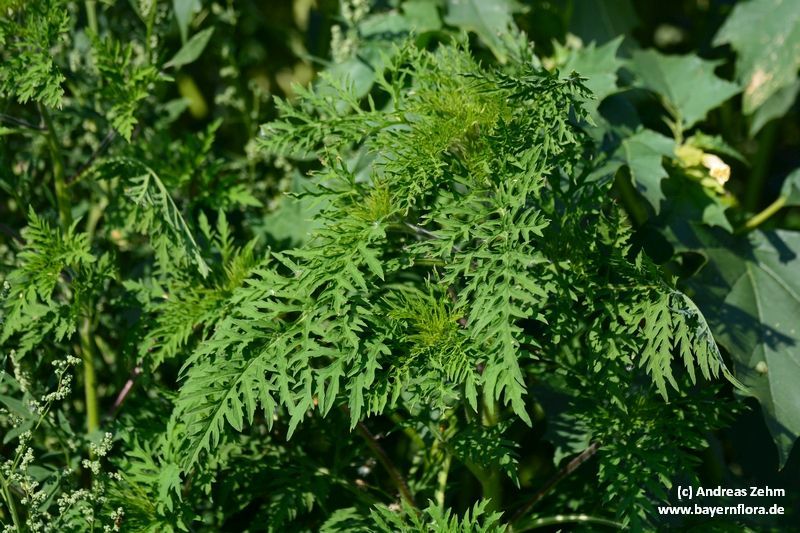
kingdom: Plantae
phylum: Tracheophyta
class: Magnoliopsida
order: Asterales
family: Asteraceae
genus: Ambrosia
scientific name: Ambrosia artemisiifolia
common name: Annual ragweed
